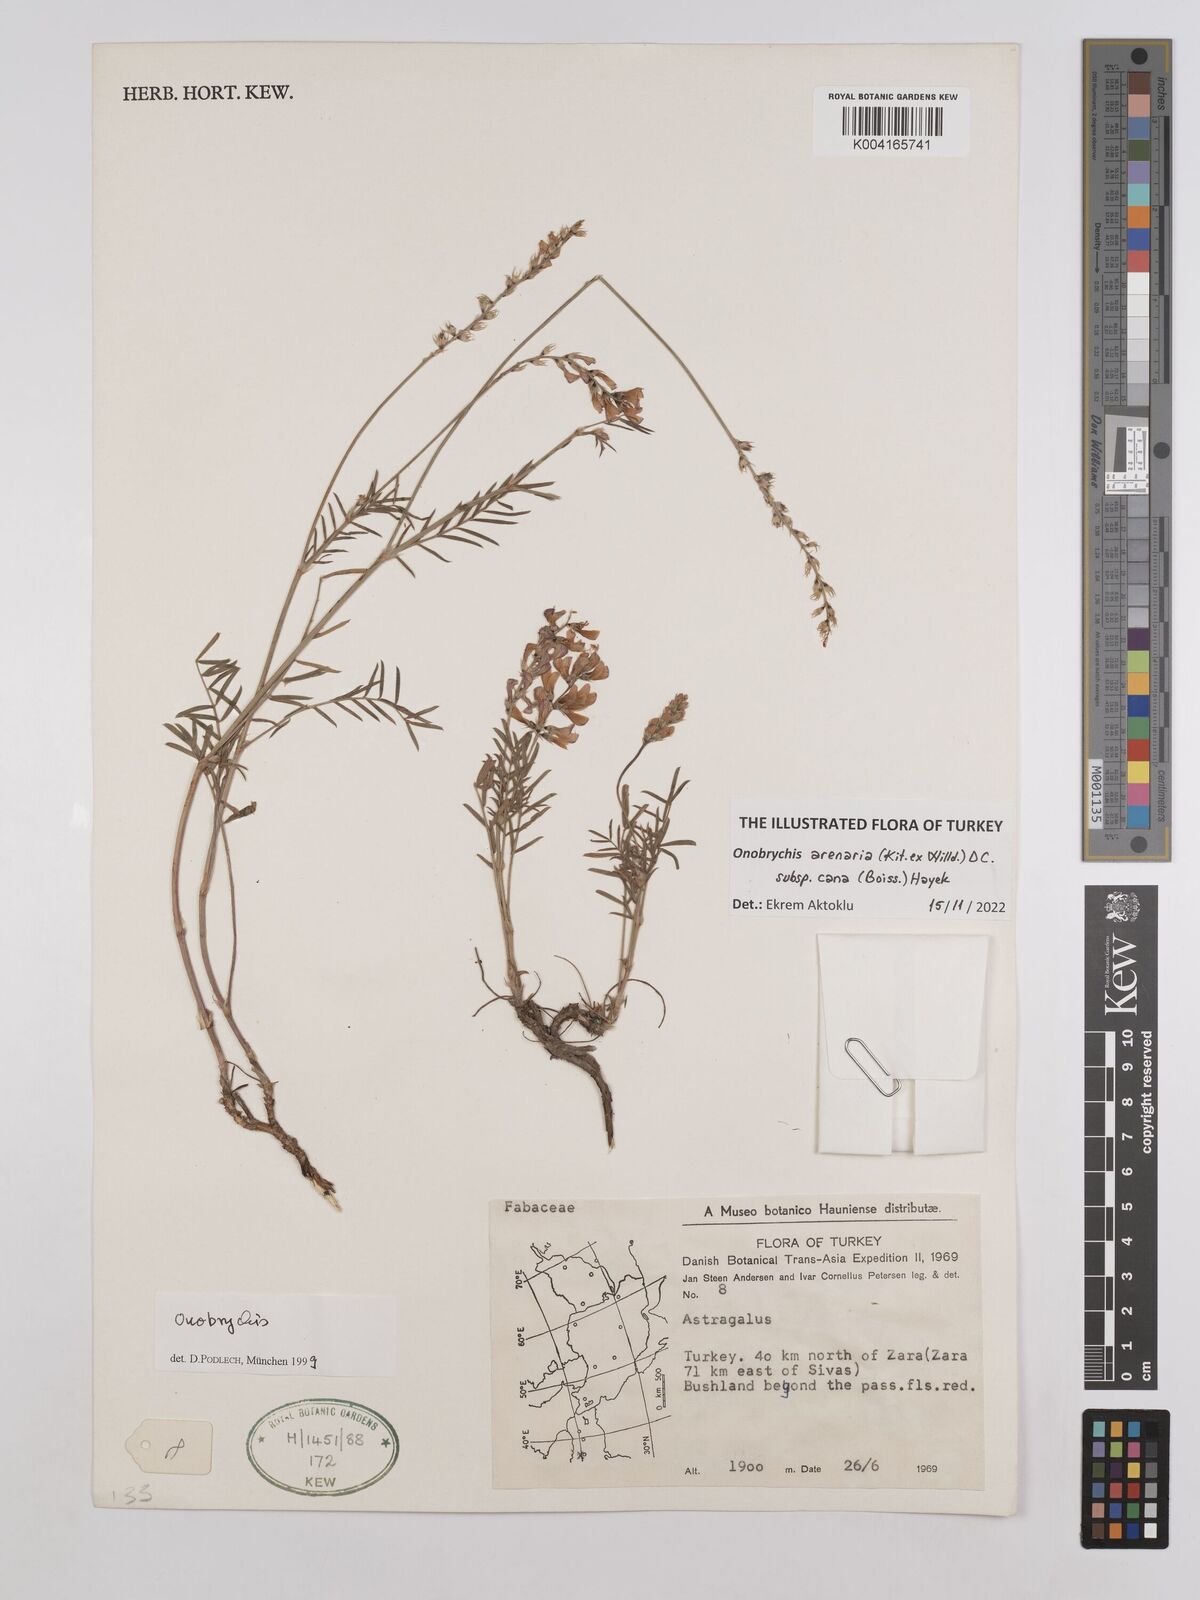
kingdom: Plantae
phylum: Tracheophyta
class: Magnoliopsida
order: Fabales
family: Fabaceae
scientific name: Fabaceae
